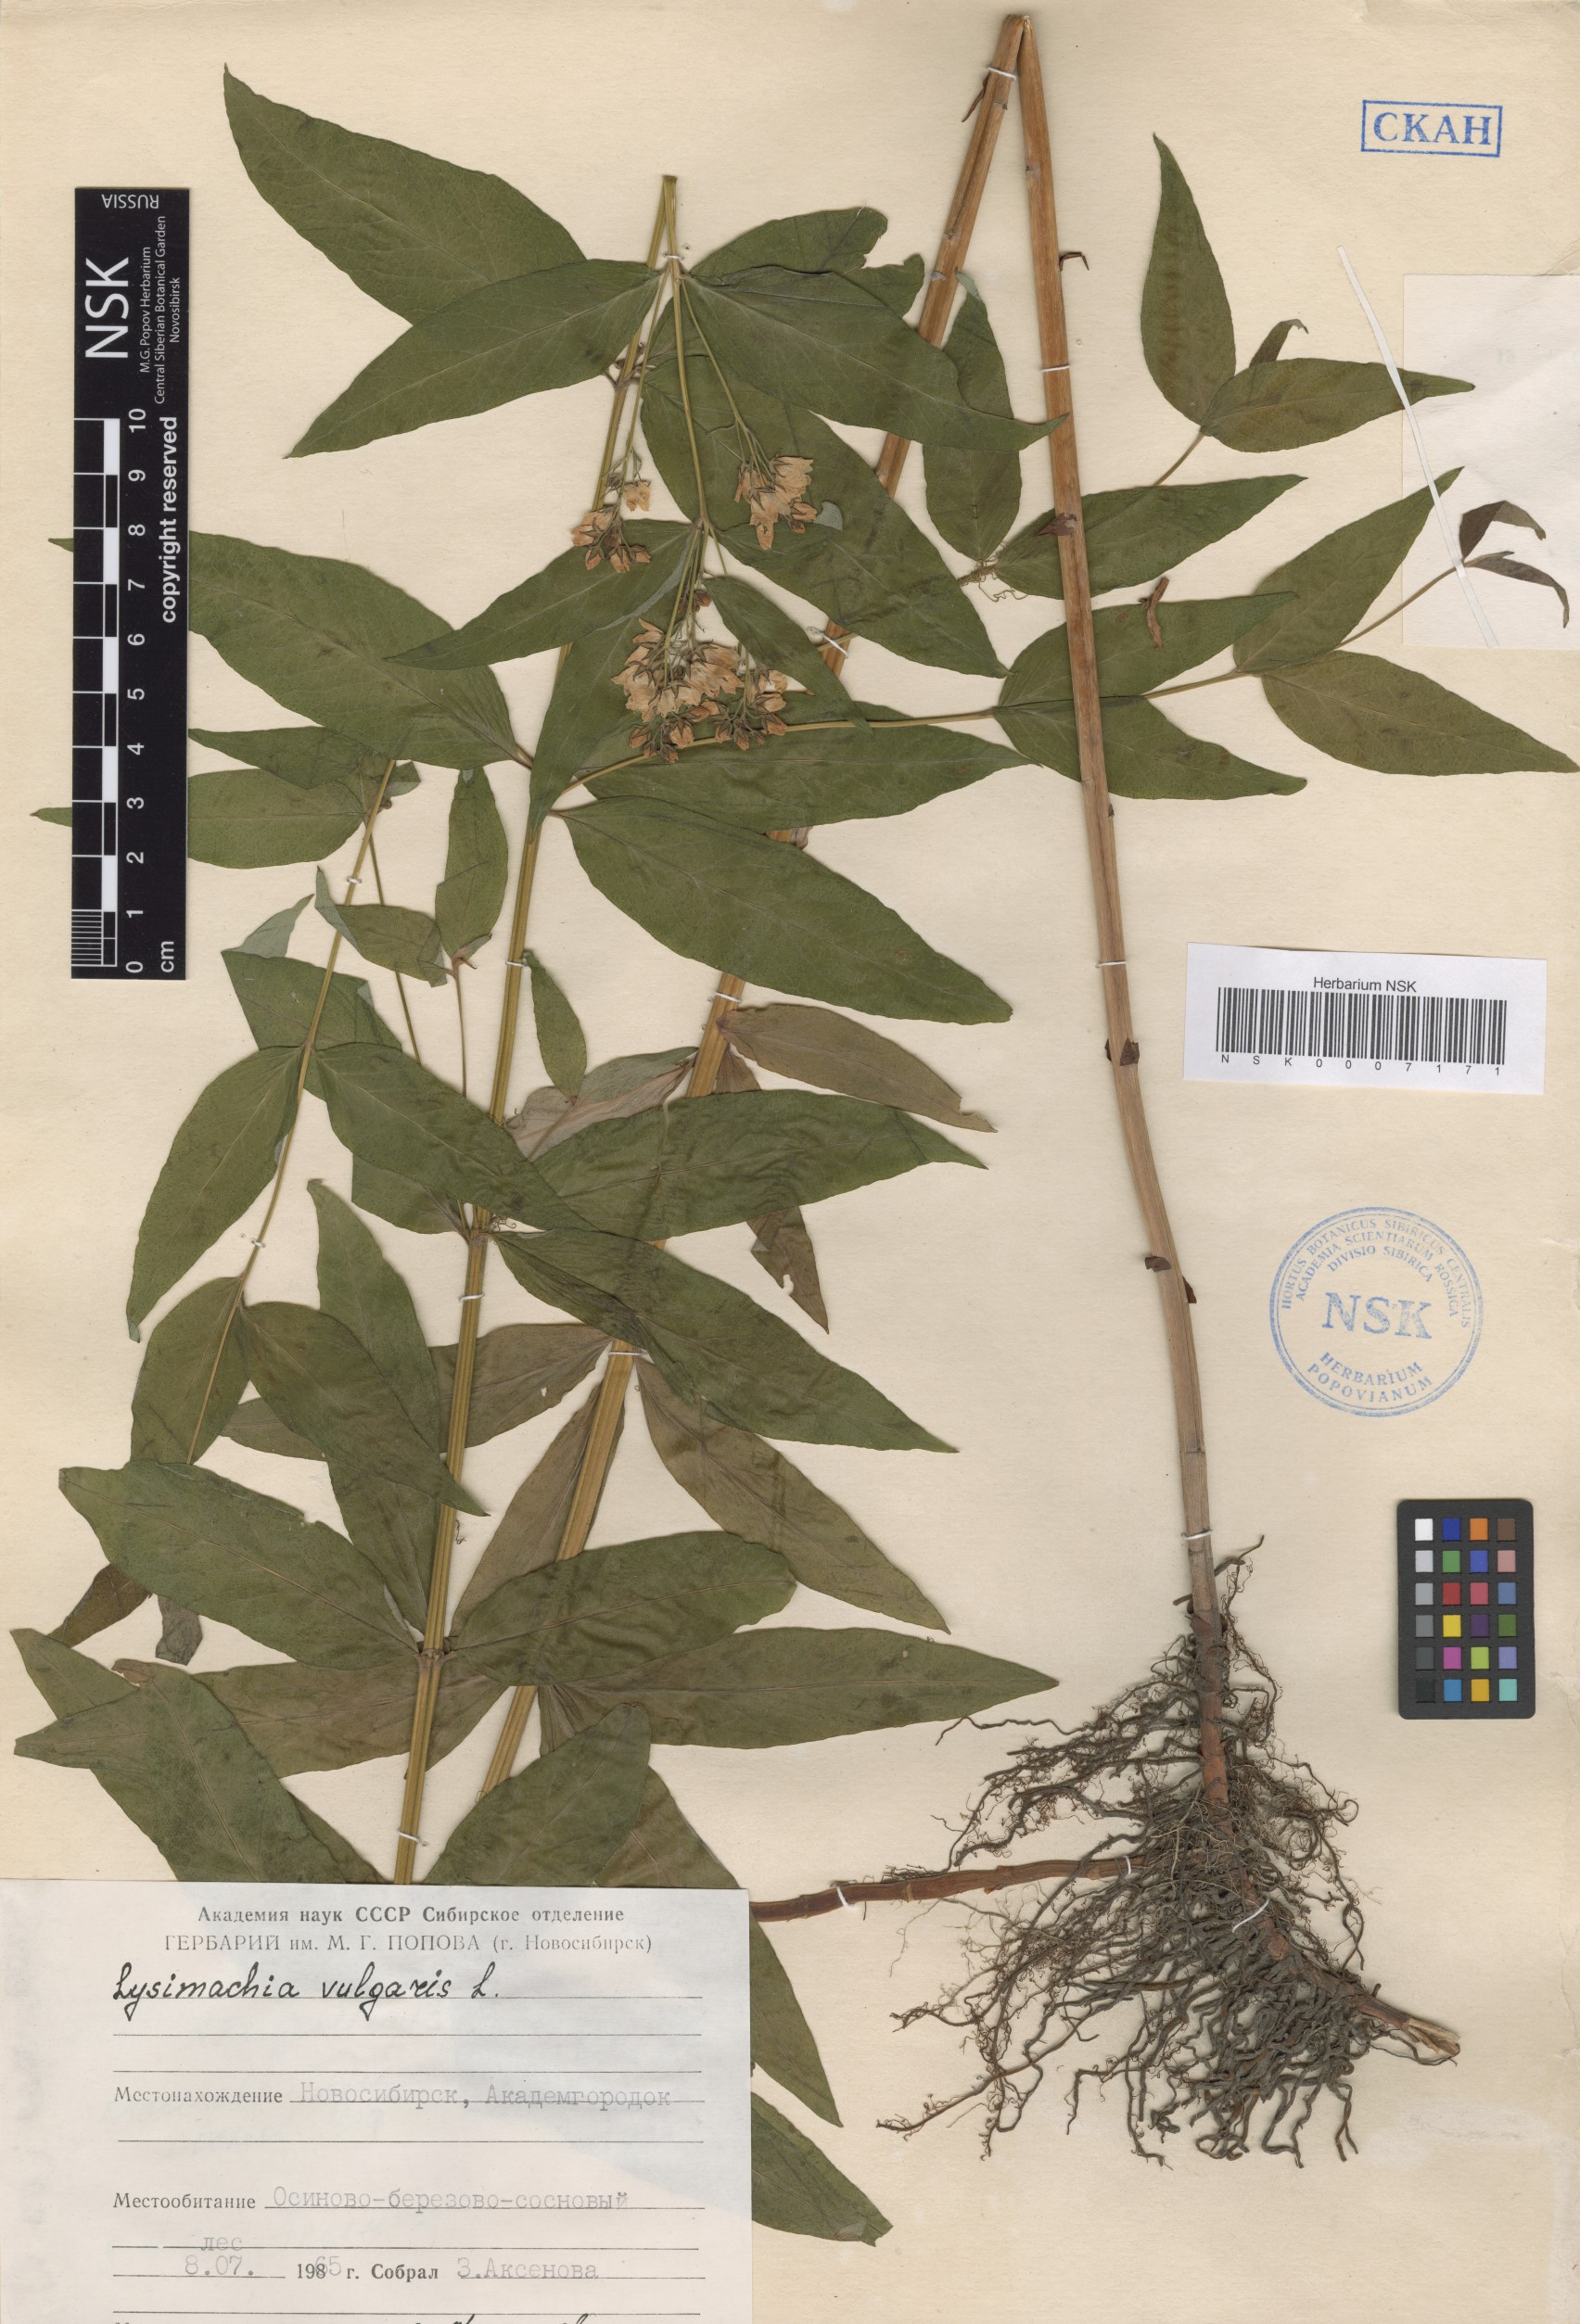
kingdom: Plantae
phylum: Tracheophyta
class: Magnoliopsida
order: Ericales
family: Primulaceae
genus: Lysimachia
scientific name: Lysimachia vulgaris
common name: Yellow loosestrife
